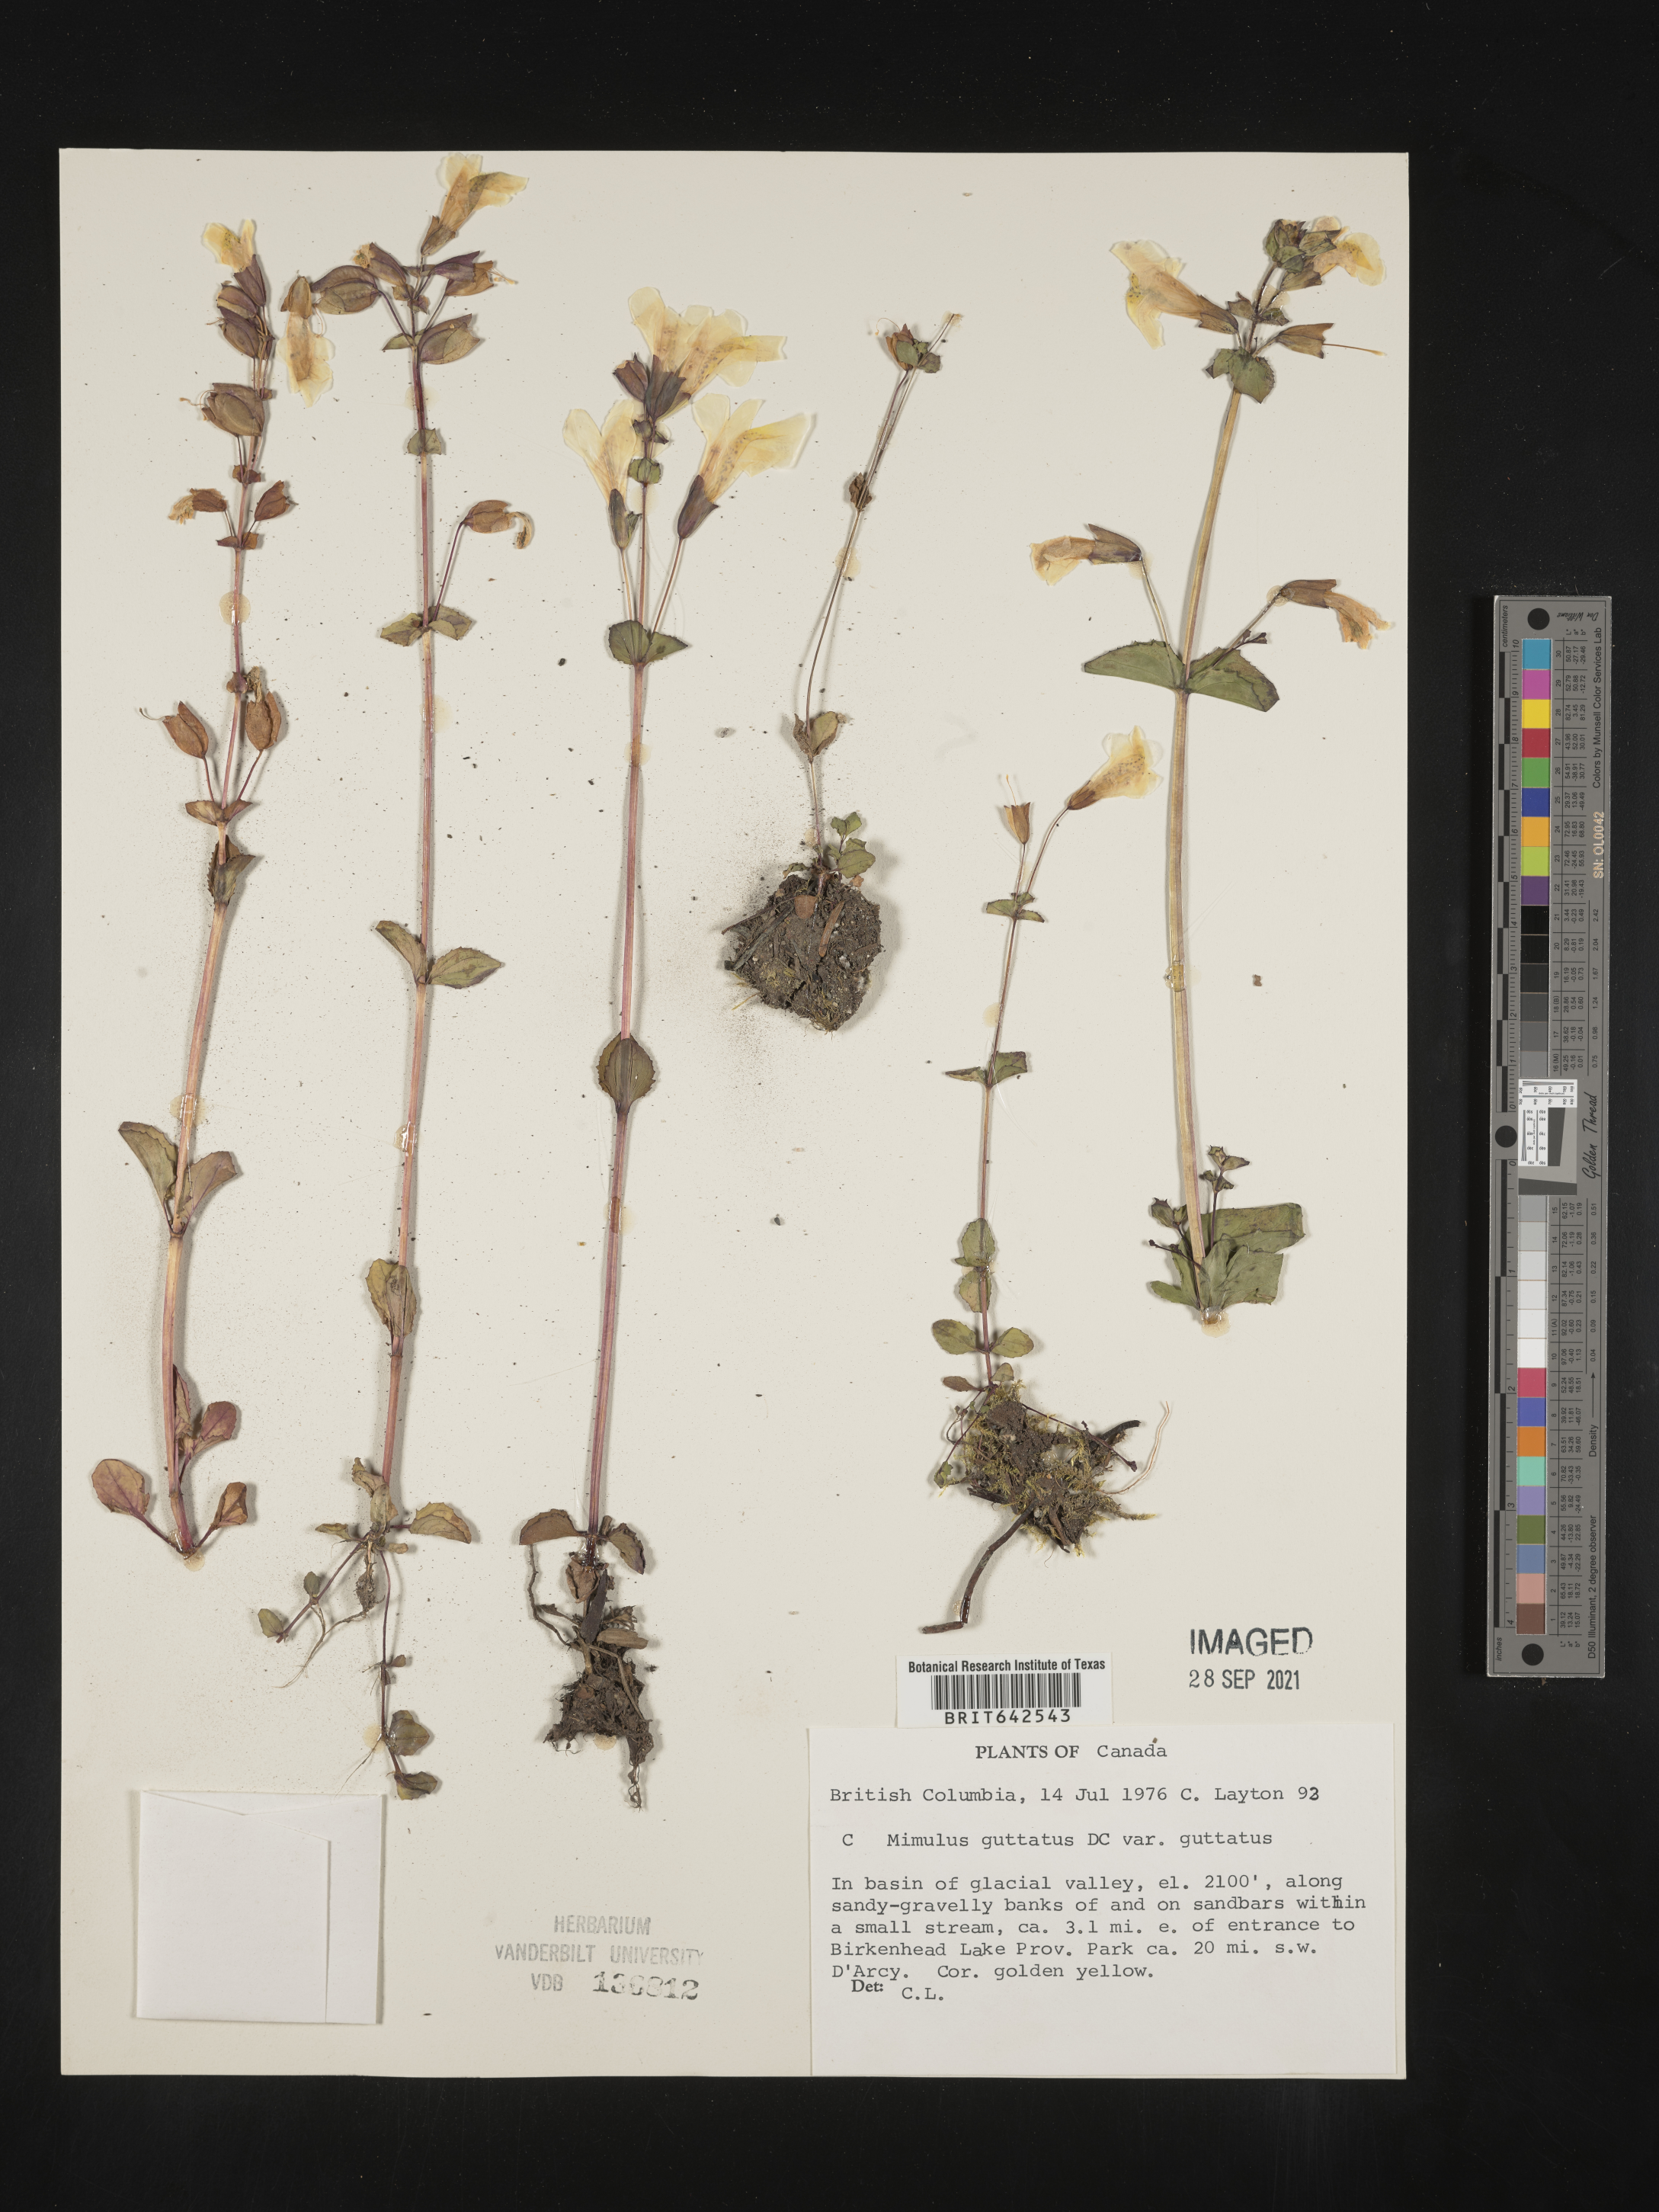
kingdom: Plantae
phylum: Tracheophyta
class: Magnoliopsida
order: Lamiales
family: Phrymaceae
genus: Mimulus
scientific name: Mimulus
